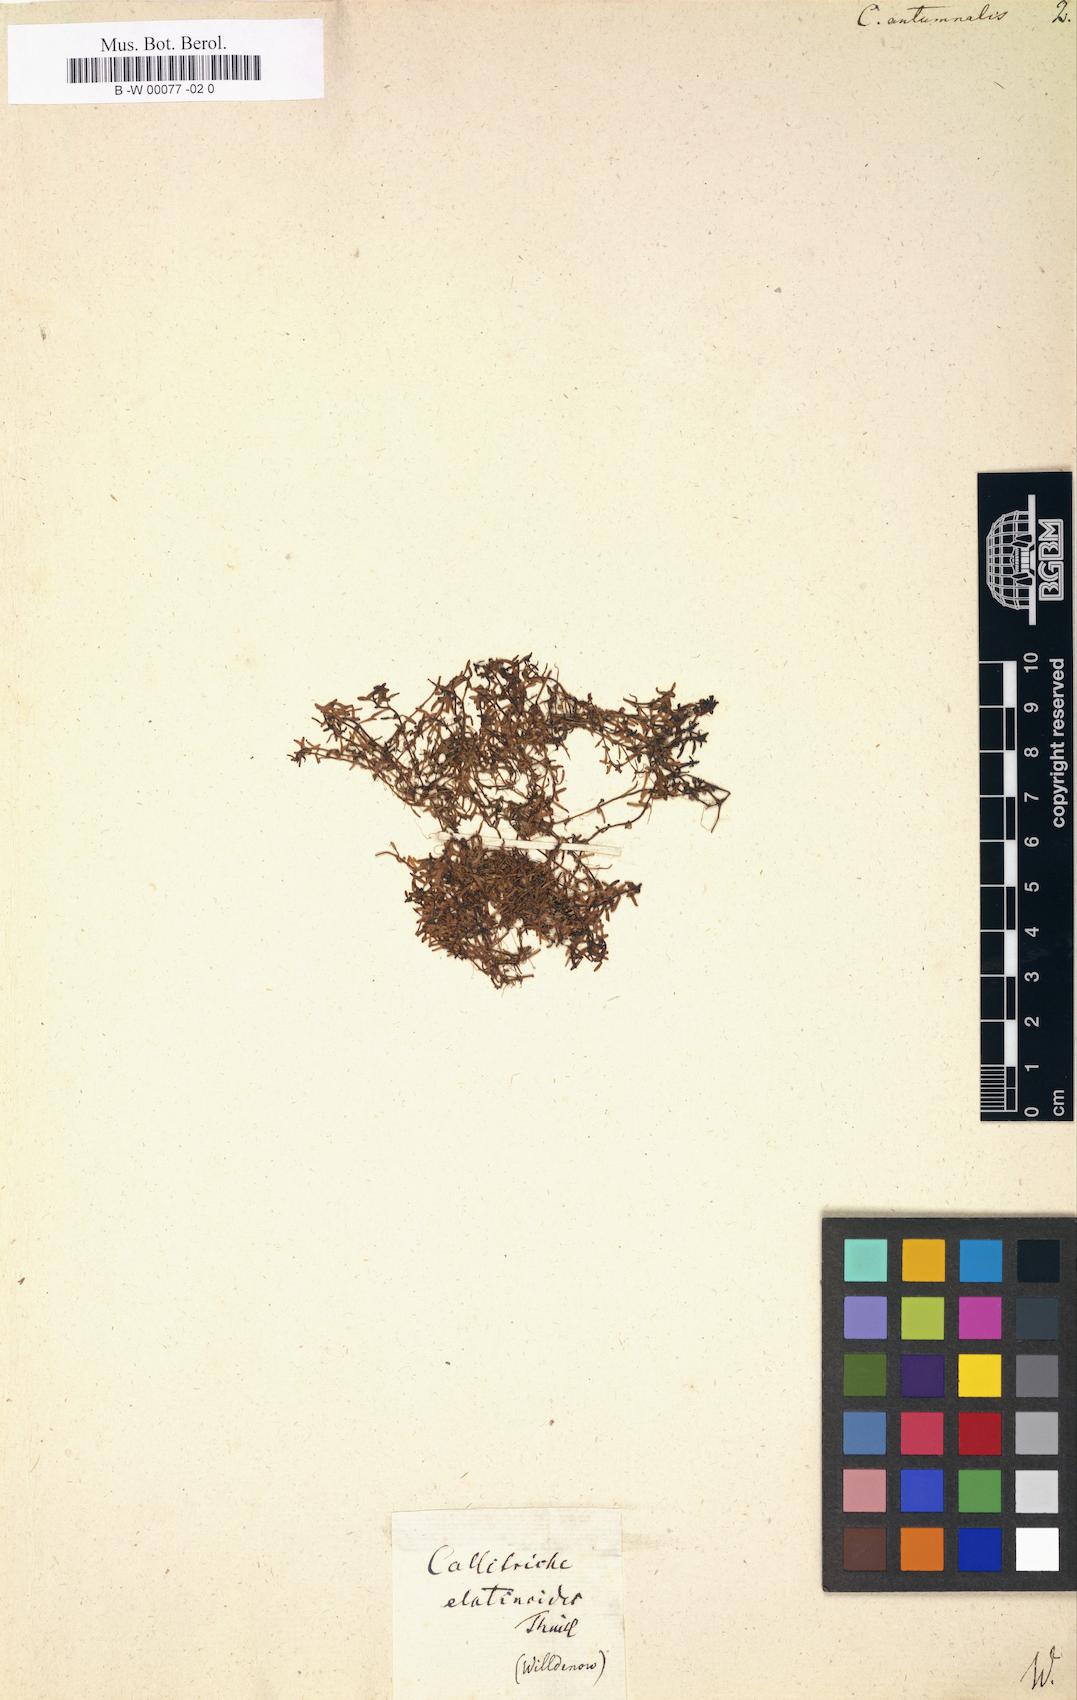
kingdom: Plantae
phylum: Tracheophyta
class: Magnoliopsida
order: Lamiales
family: Plantaginaceae
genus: Callitriche
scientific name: Callitriche hermaphroditica
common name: Autumnal water-starwort
